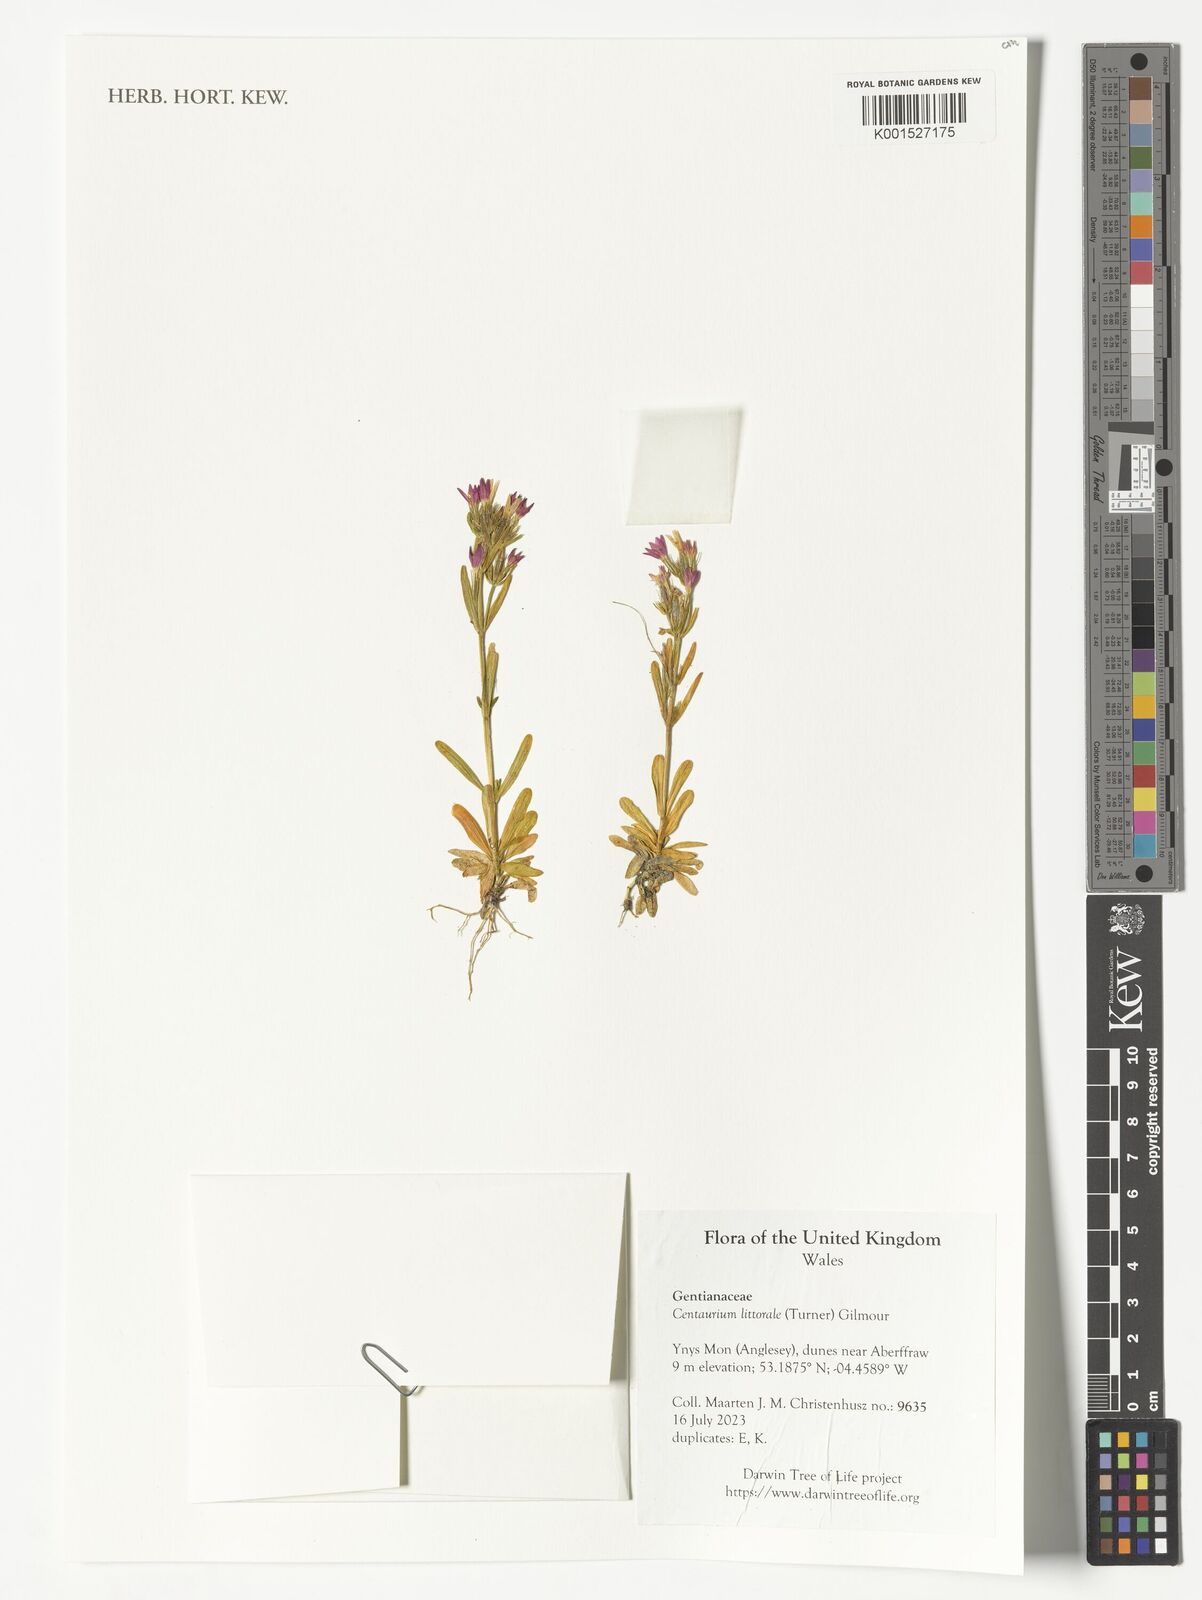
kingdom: Plantae
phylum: Tracheophyta
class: Magnoliopsida
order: Gentianales
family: Gentianaceae
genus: Centaurium
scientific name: Centaurium littorale
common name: Seaside centaury
